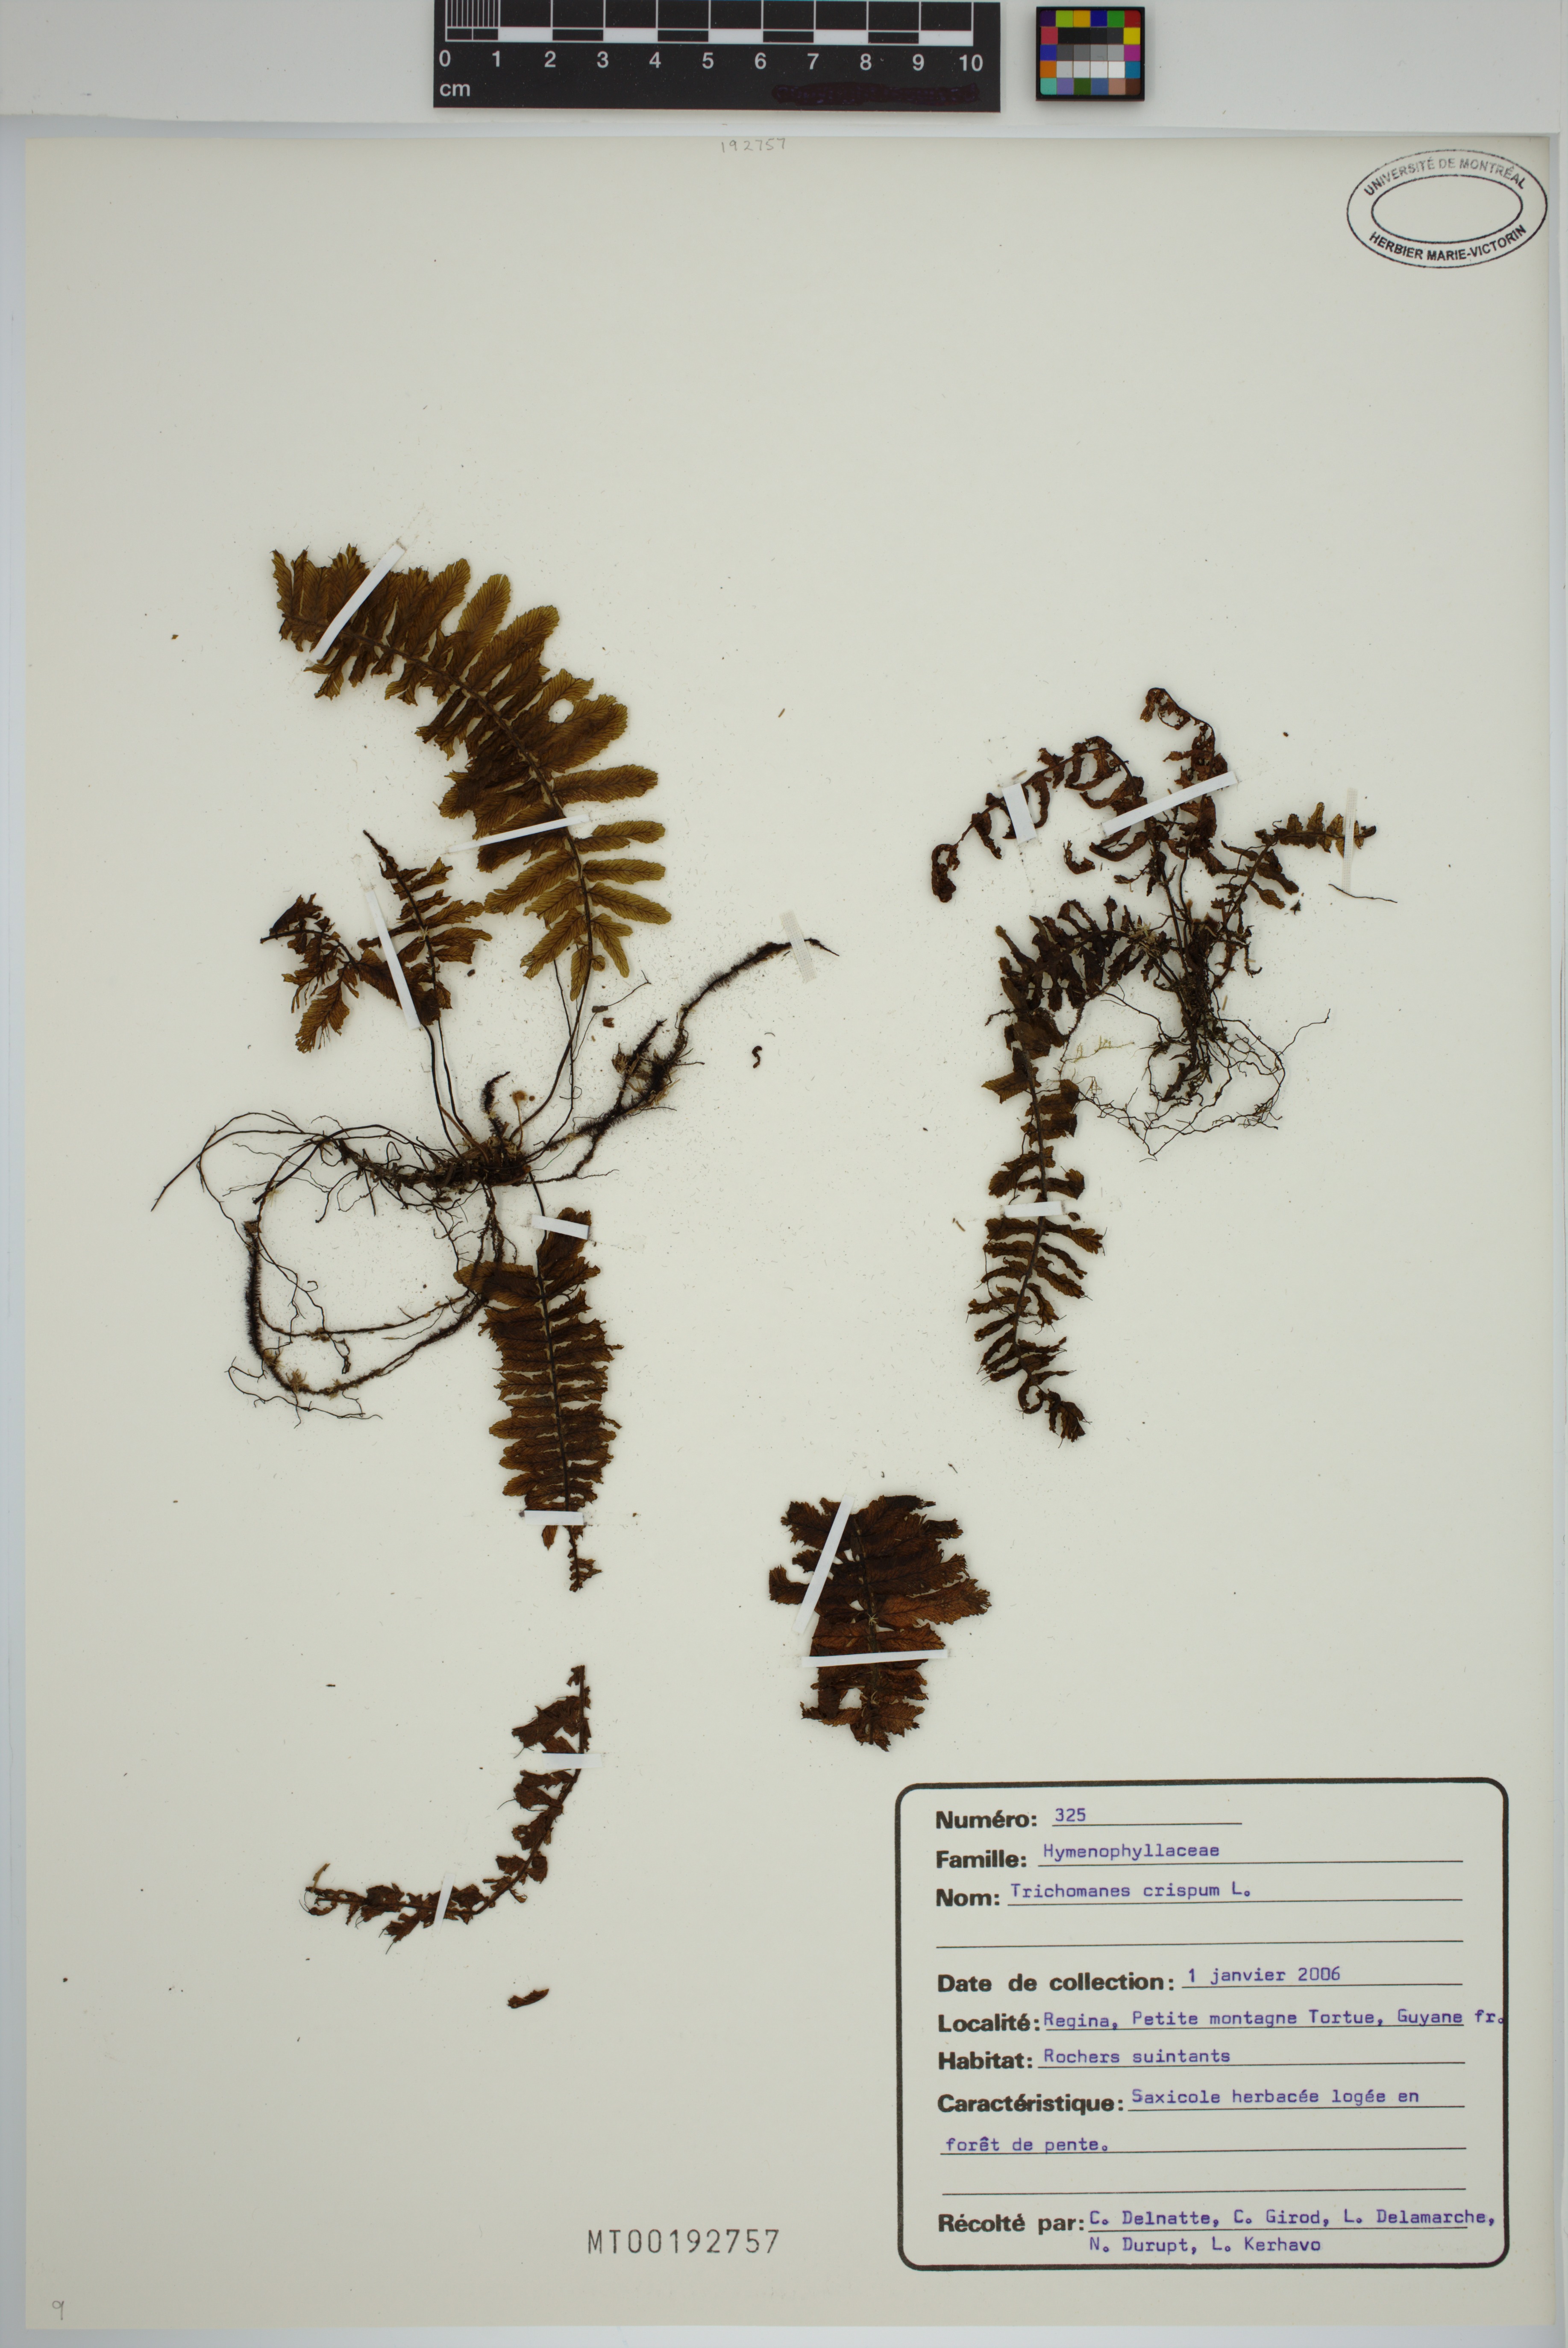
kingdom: Plantae
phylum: Tracheophyta
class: Polypodiopsida
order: Hymenophyllales
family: Hymenophyllaceae
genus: Trichomanes
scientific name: Trichomanes crispum
